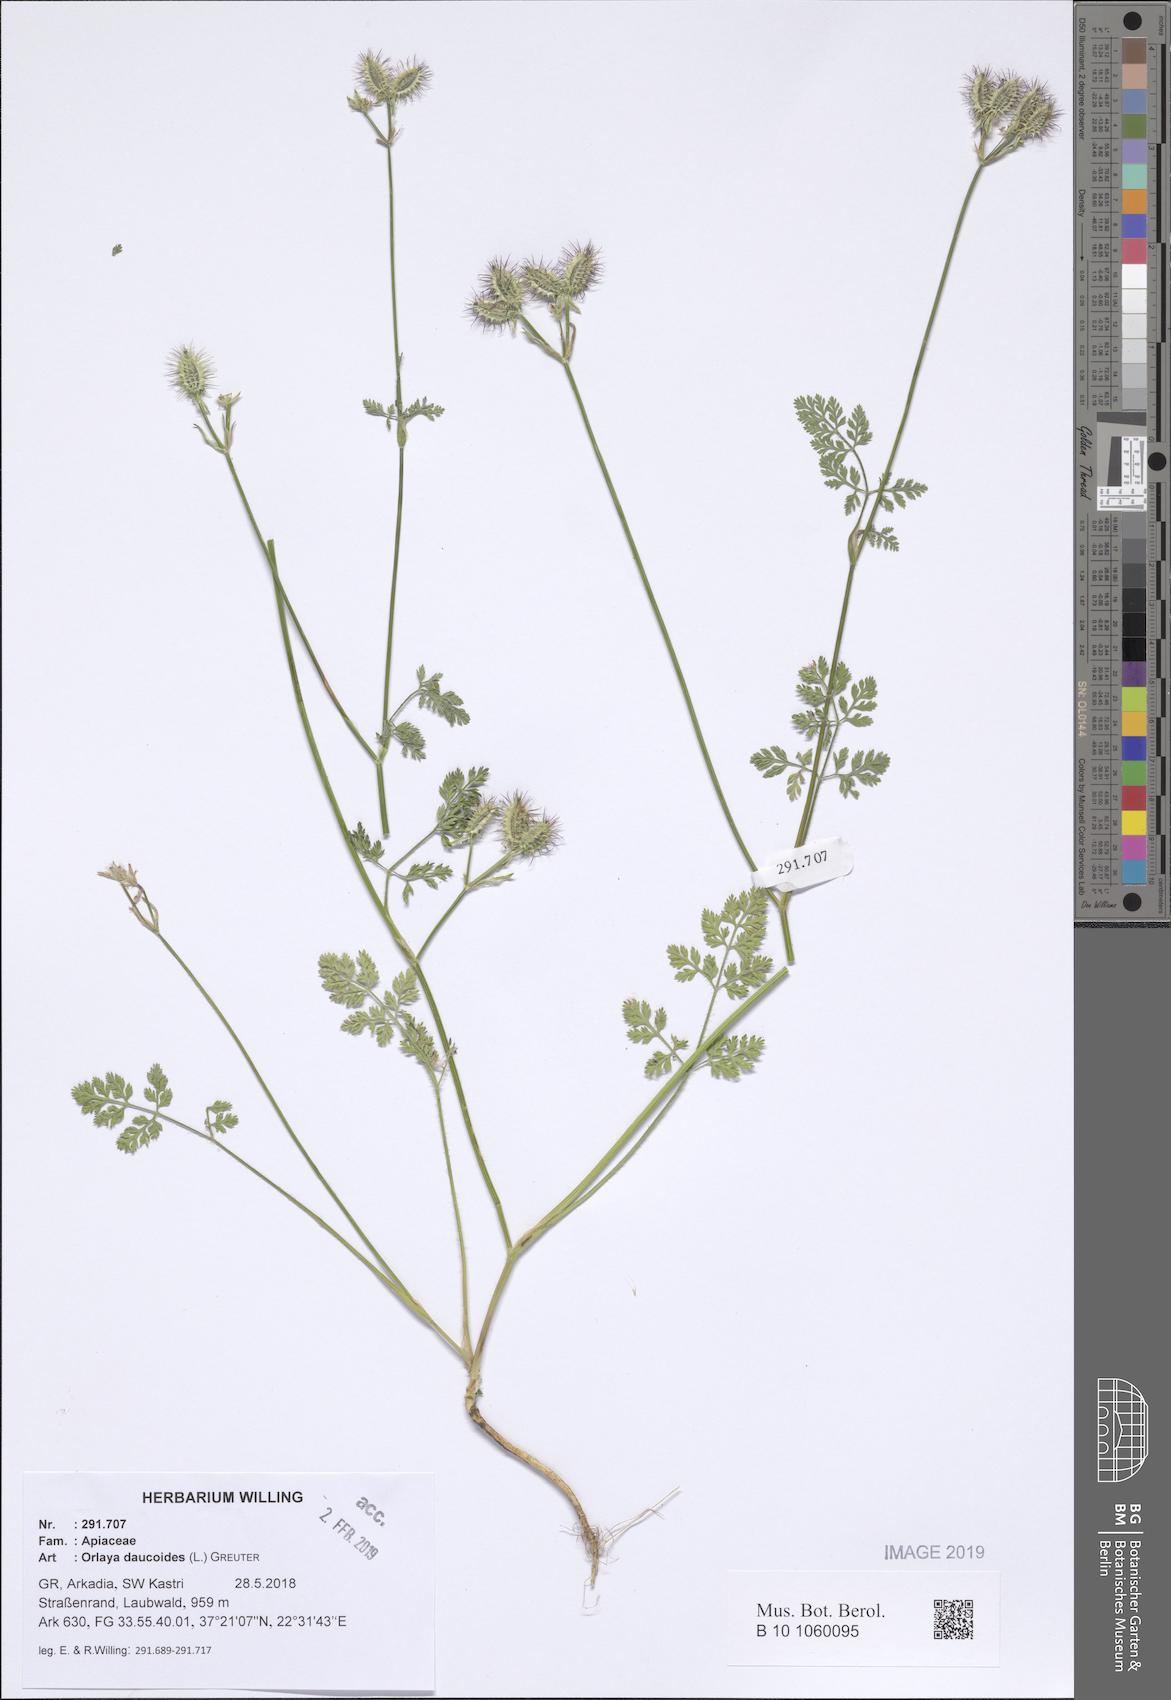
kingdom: Plantae
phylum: Tracheophyta
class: Magnoliopsida
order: Apiales
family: Apiaceae
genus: Orlaya
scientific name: Orlaya daucoides
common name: Flat-fruit orlaya
